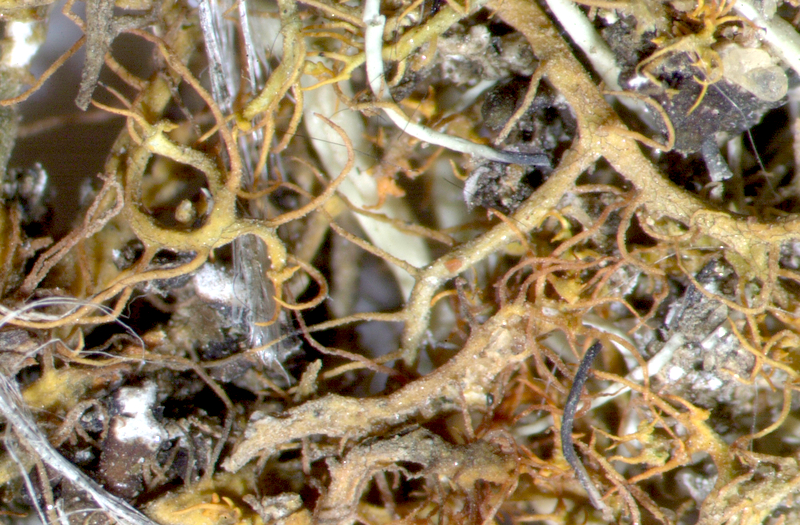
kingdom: Fungi
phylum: Ascomycota
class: Lecanoromycetes
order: Teloschistales
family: Teloschistaceae
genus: Teloschistes
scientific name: Teloschistes capensis
